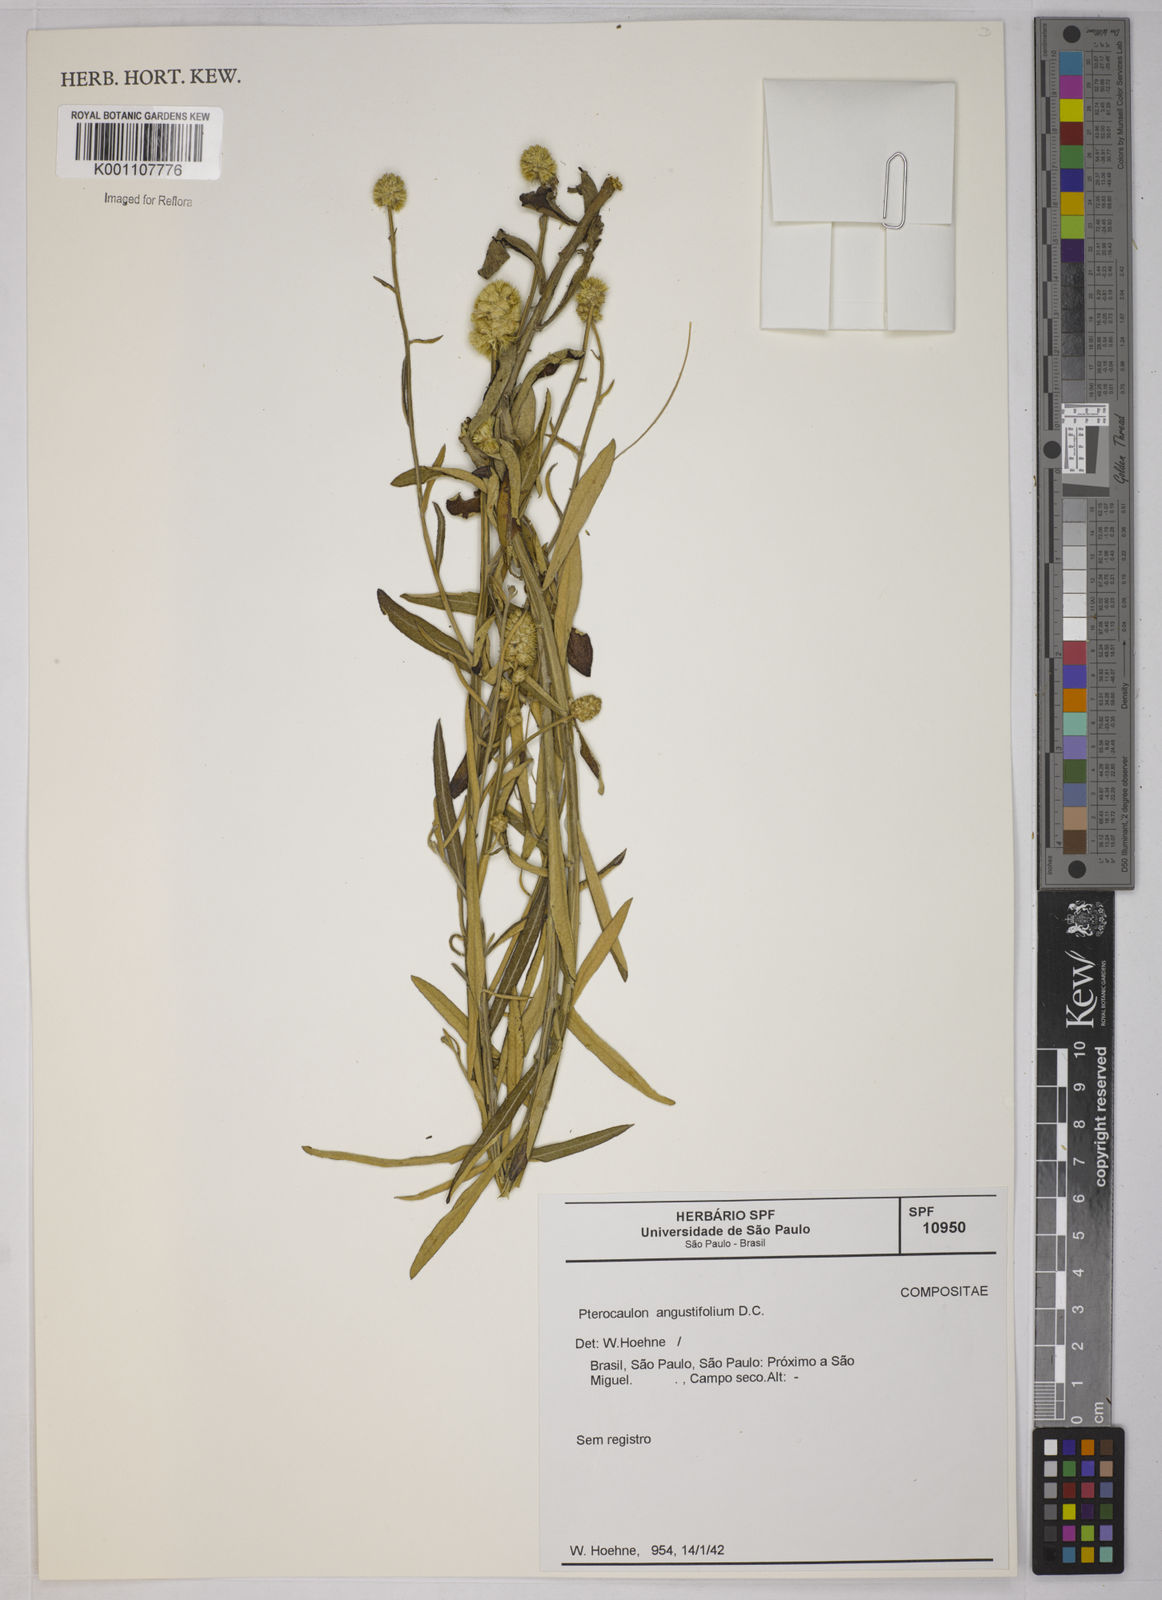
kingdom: Plantae
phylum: Tracheophyta
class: Magnoliopsida
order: Asterales
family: Asteraceae
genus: Pterocaulon
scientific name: Pterocaulon angustifolium
